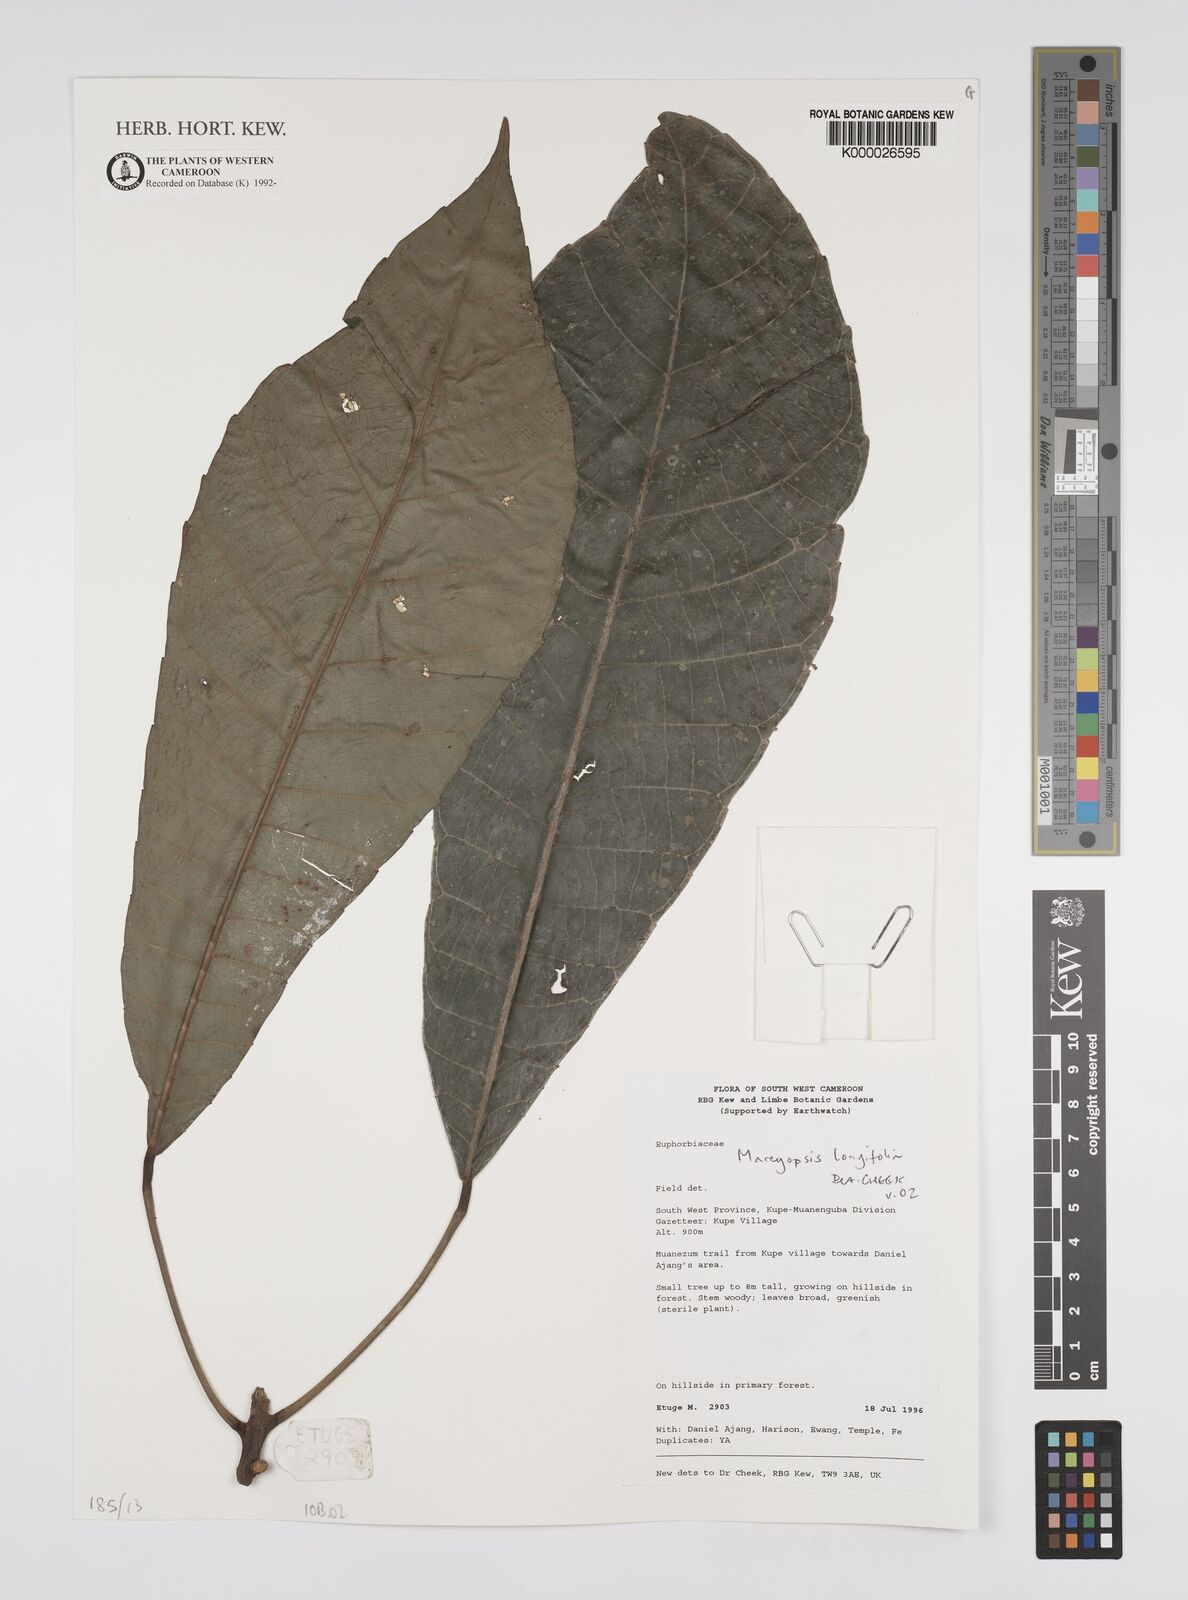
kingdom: Plantae
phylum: Tracheophyta
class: Magnoliopsida
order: Malpighiales
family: Euphorbiaceae
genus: Mareyopsis
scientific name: Mareyopsis longifolia
